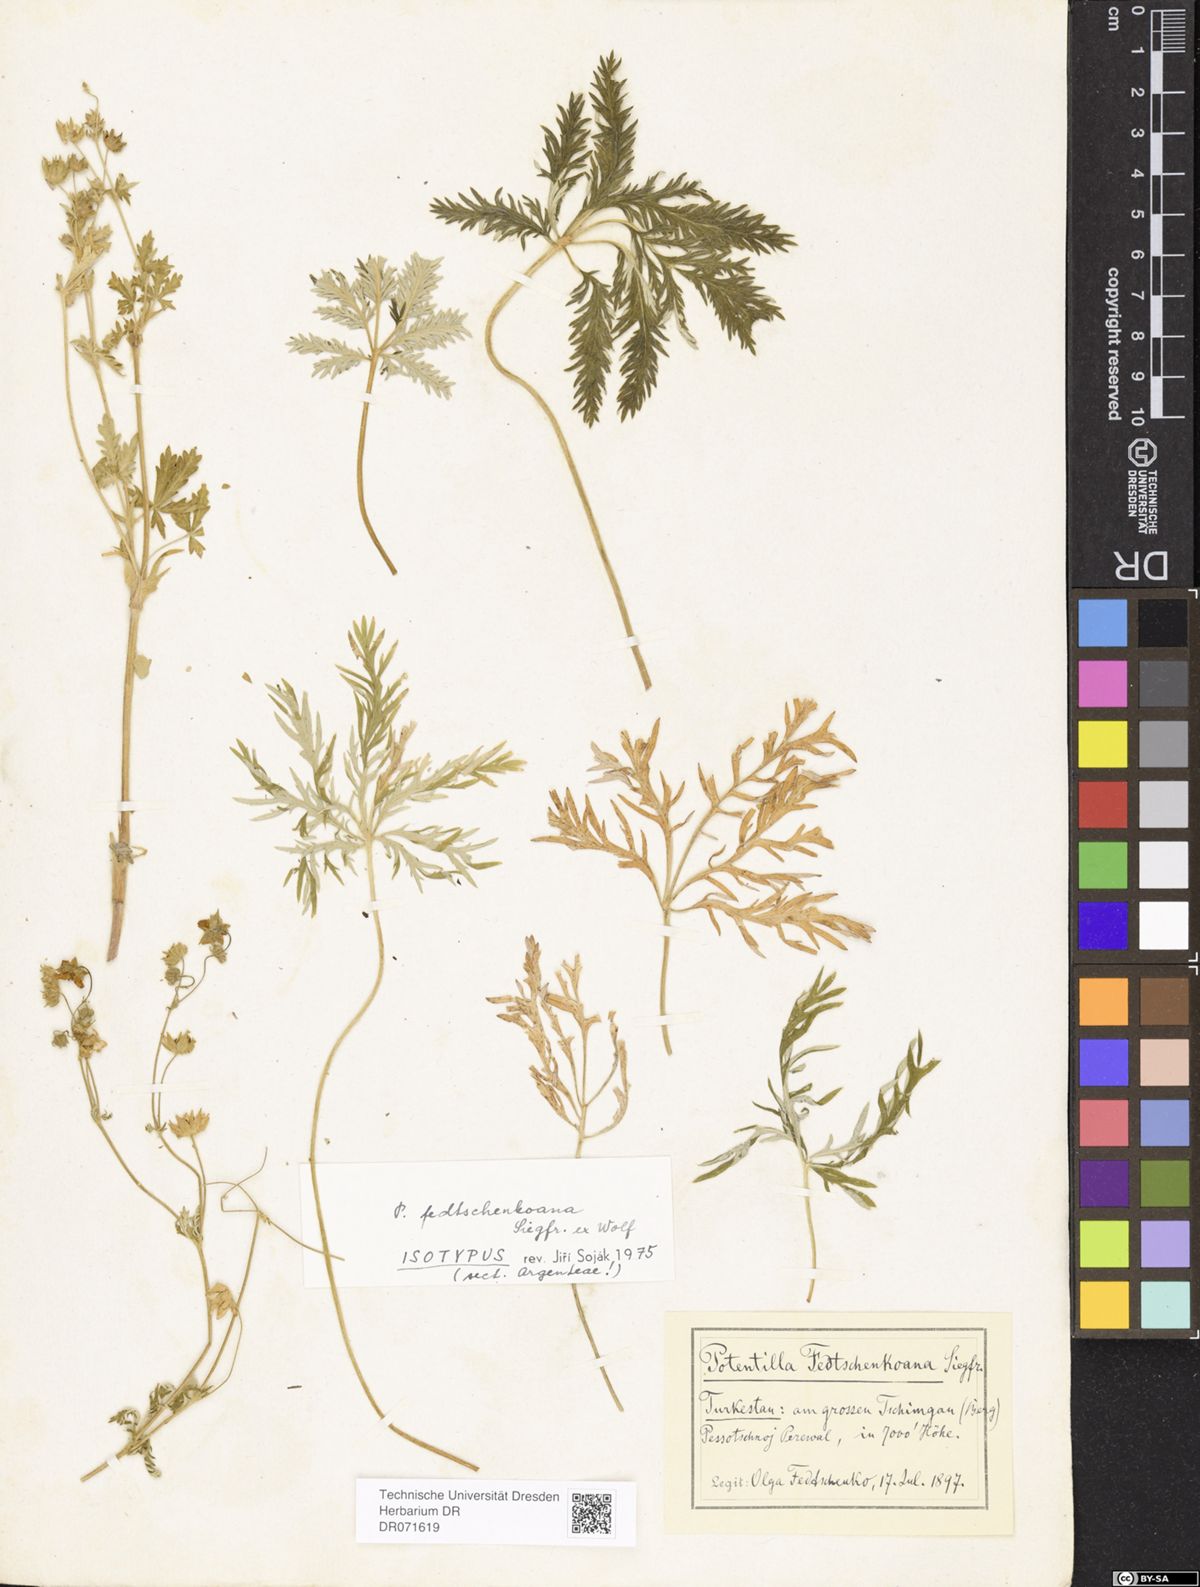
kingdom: Plantae
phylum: Tracheophyta
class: Magnoliopsida
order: Rosales
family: Rosaceae
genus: Potentilla
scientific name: Potentilla fedtschenkoana
